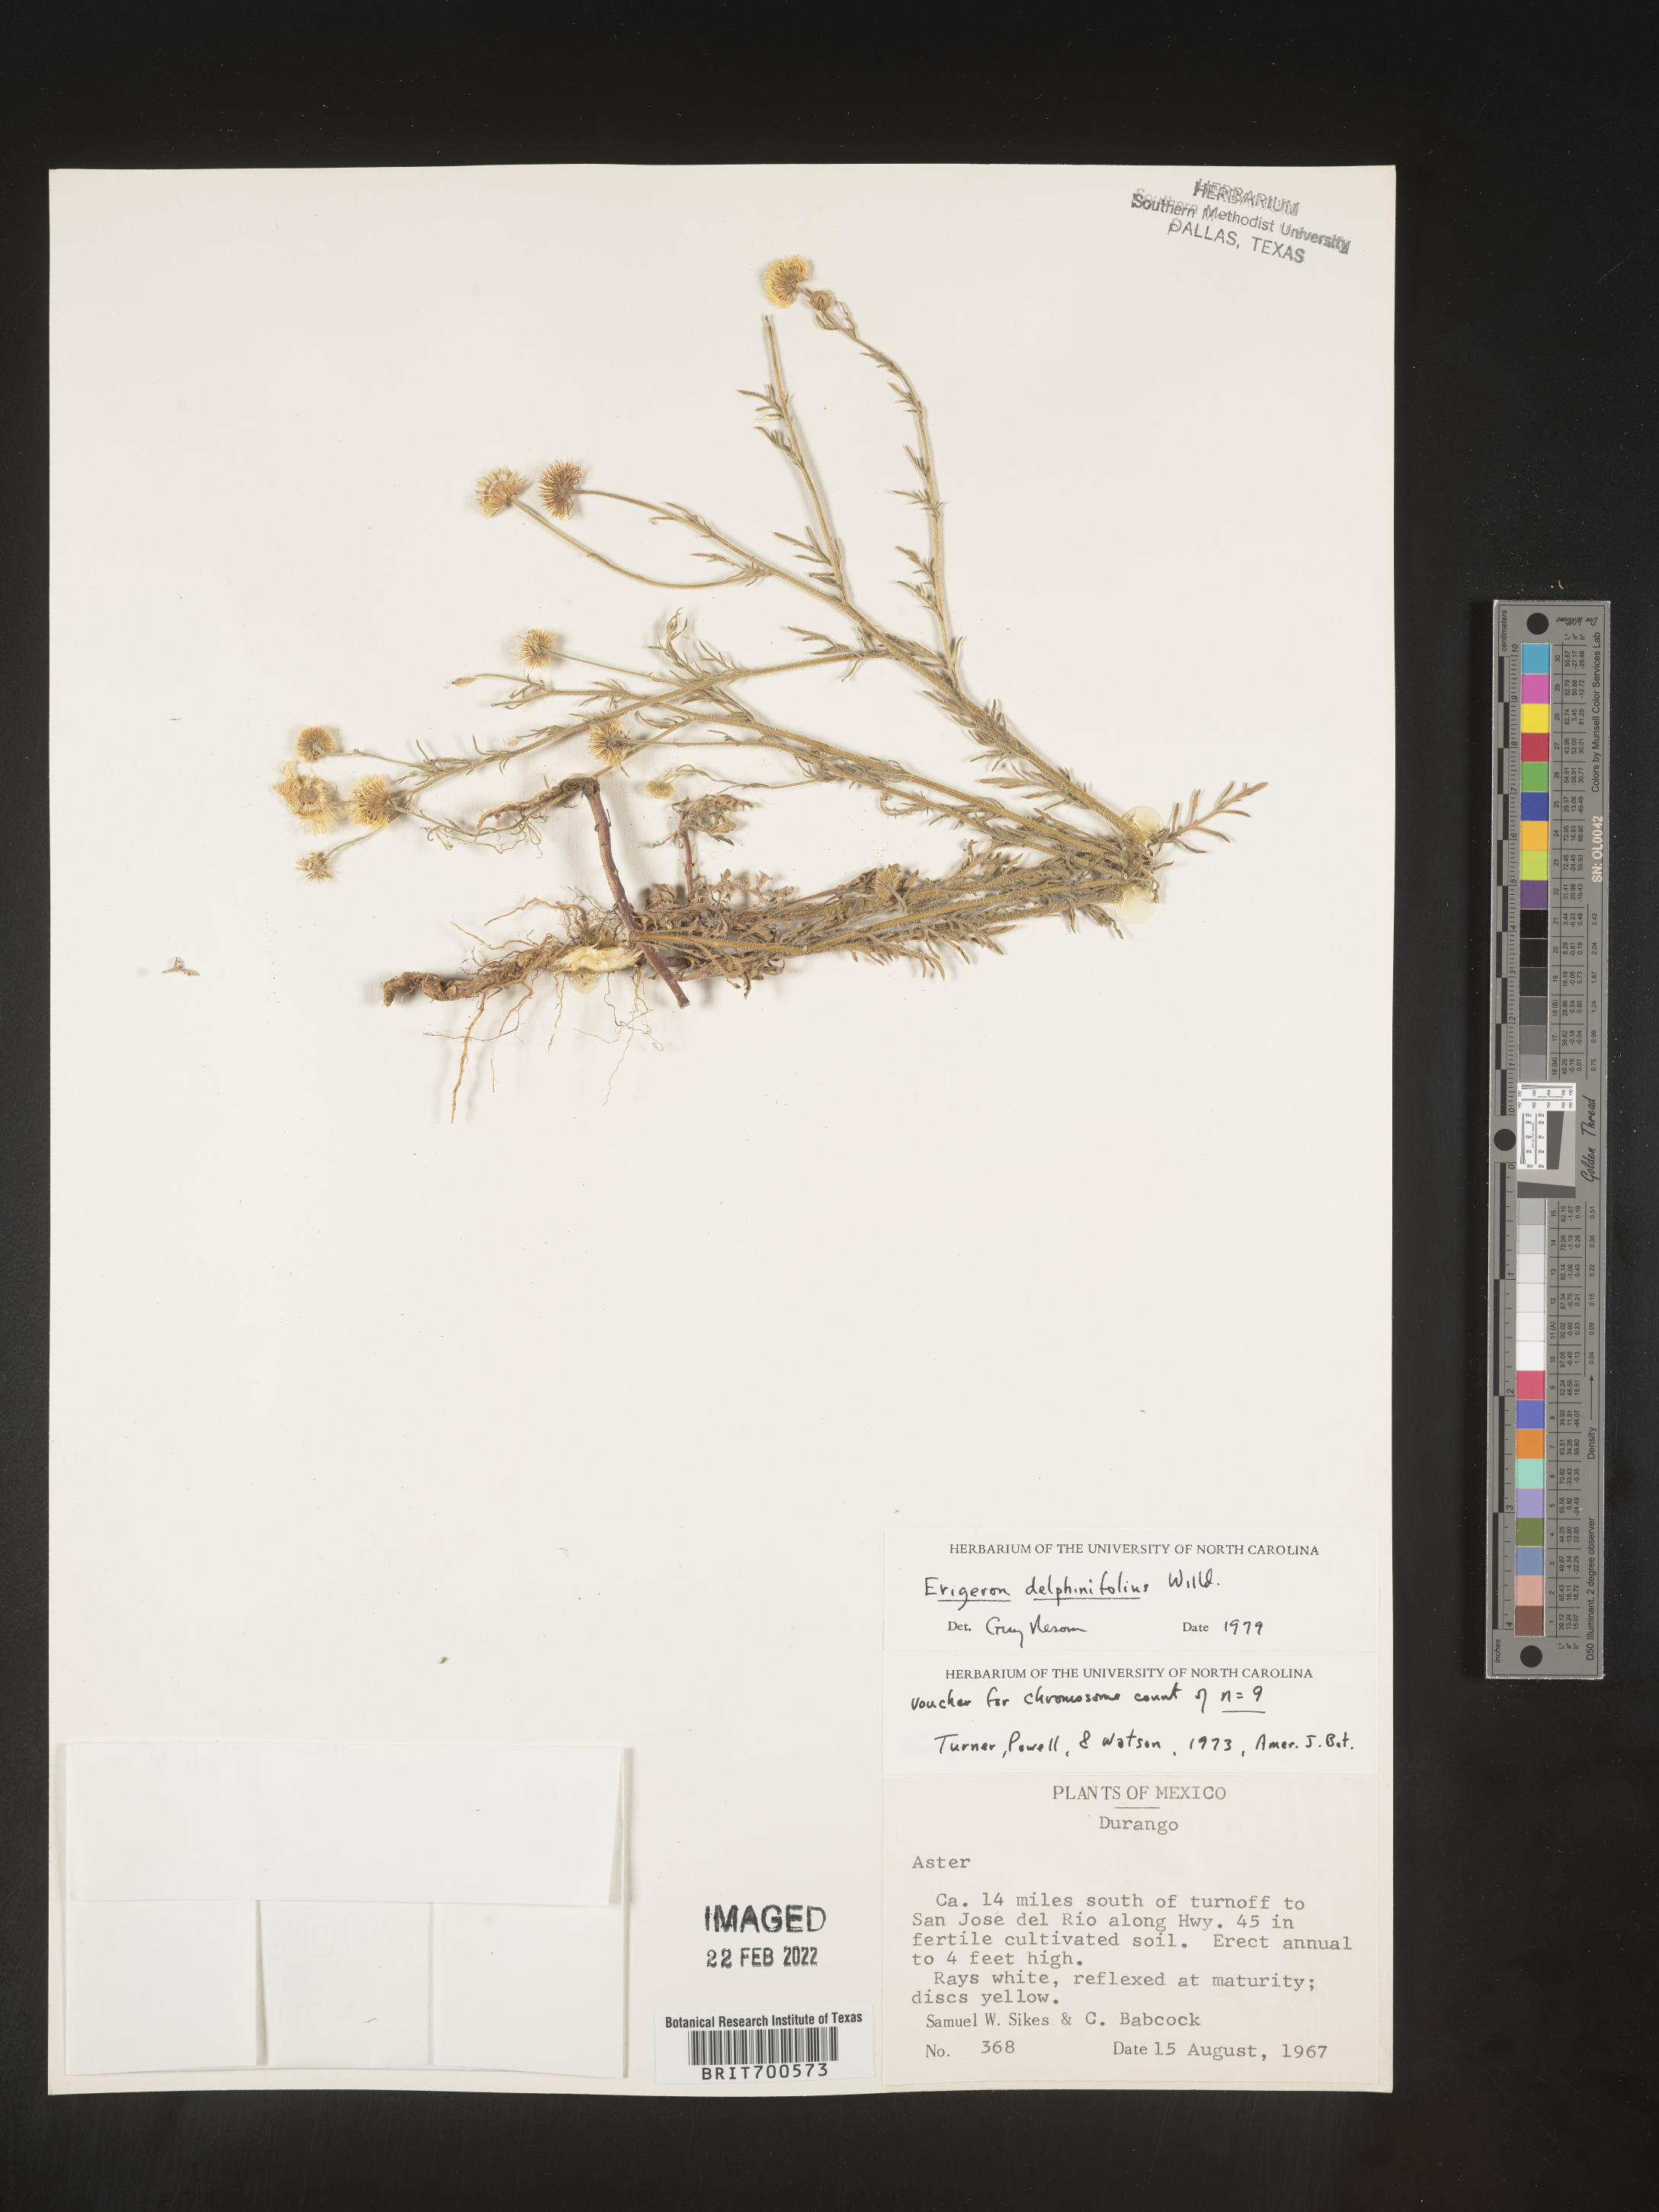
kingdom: Plantae
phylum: Tracheophyta
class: Magnoliopsida
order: Asterales
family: Asteraceae
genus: Erigeron
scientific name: Erigeron delphinifolius
